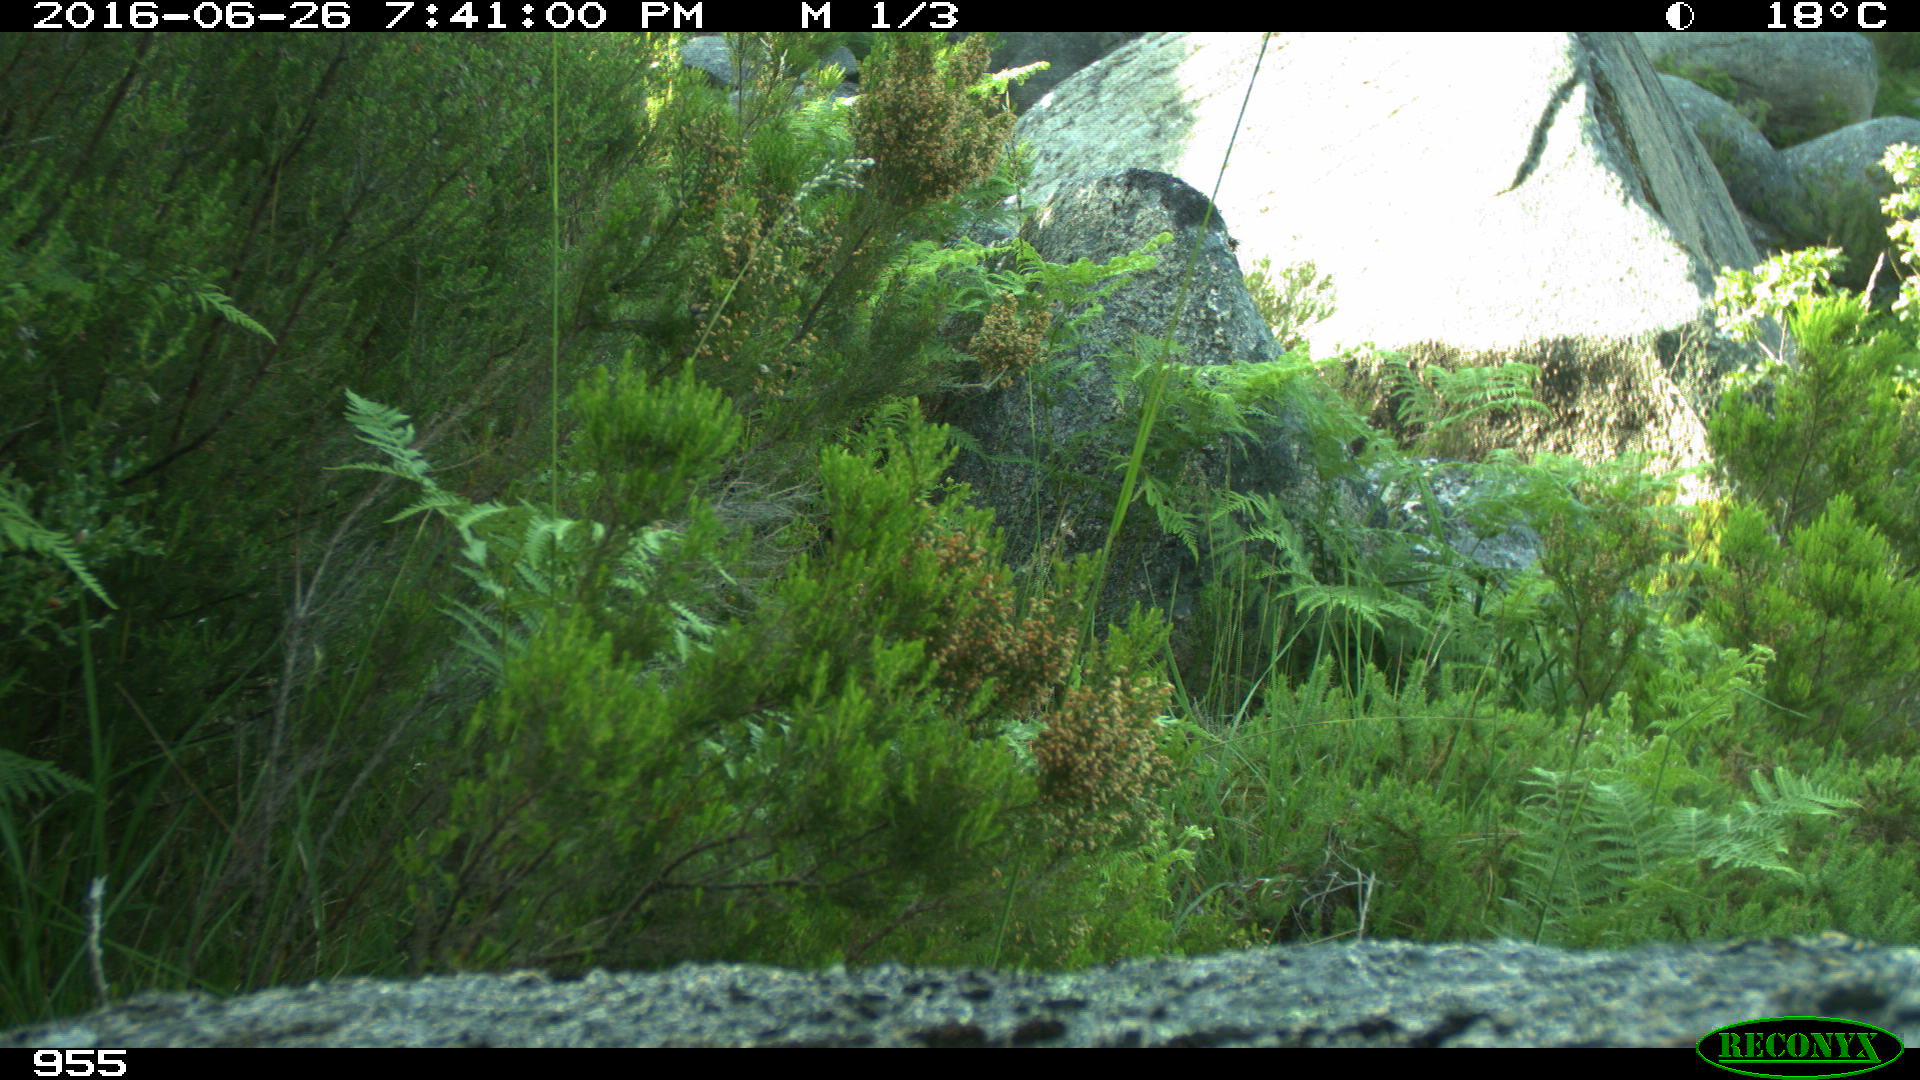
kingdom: Animalia
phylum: Chordata
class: Aves
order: Passeriformes
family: Sylviidae
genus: Sylvia
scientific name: Sylvia undata
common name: Dartford warbler
